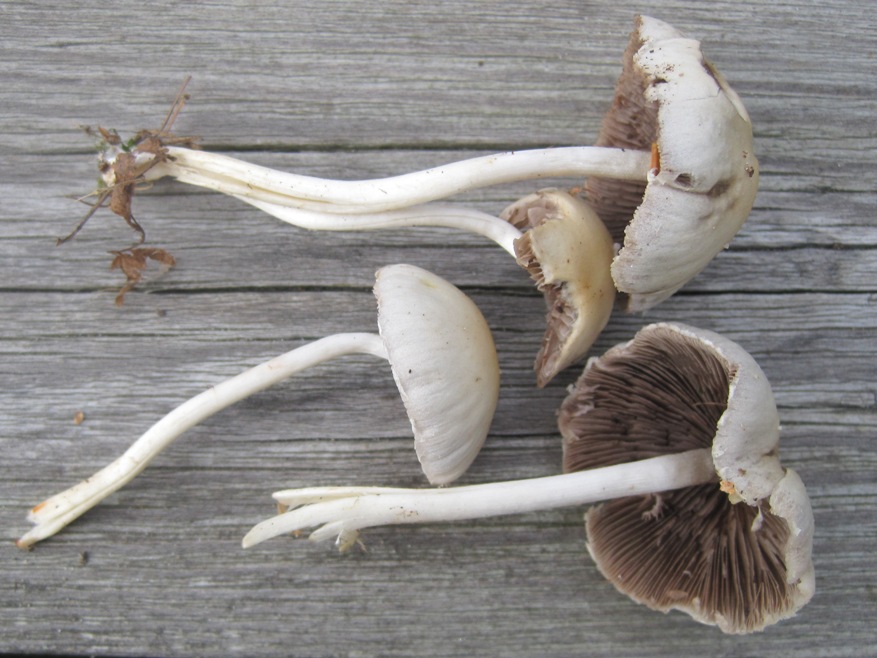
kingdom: Fungi
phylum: Basidiomycota
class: Agaricomycetes
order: Agaricales
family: Psathyrellaceae
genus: Candolleomyces
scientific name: Candolleomyces candolleanus
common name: Candolles mørkhat
